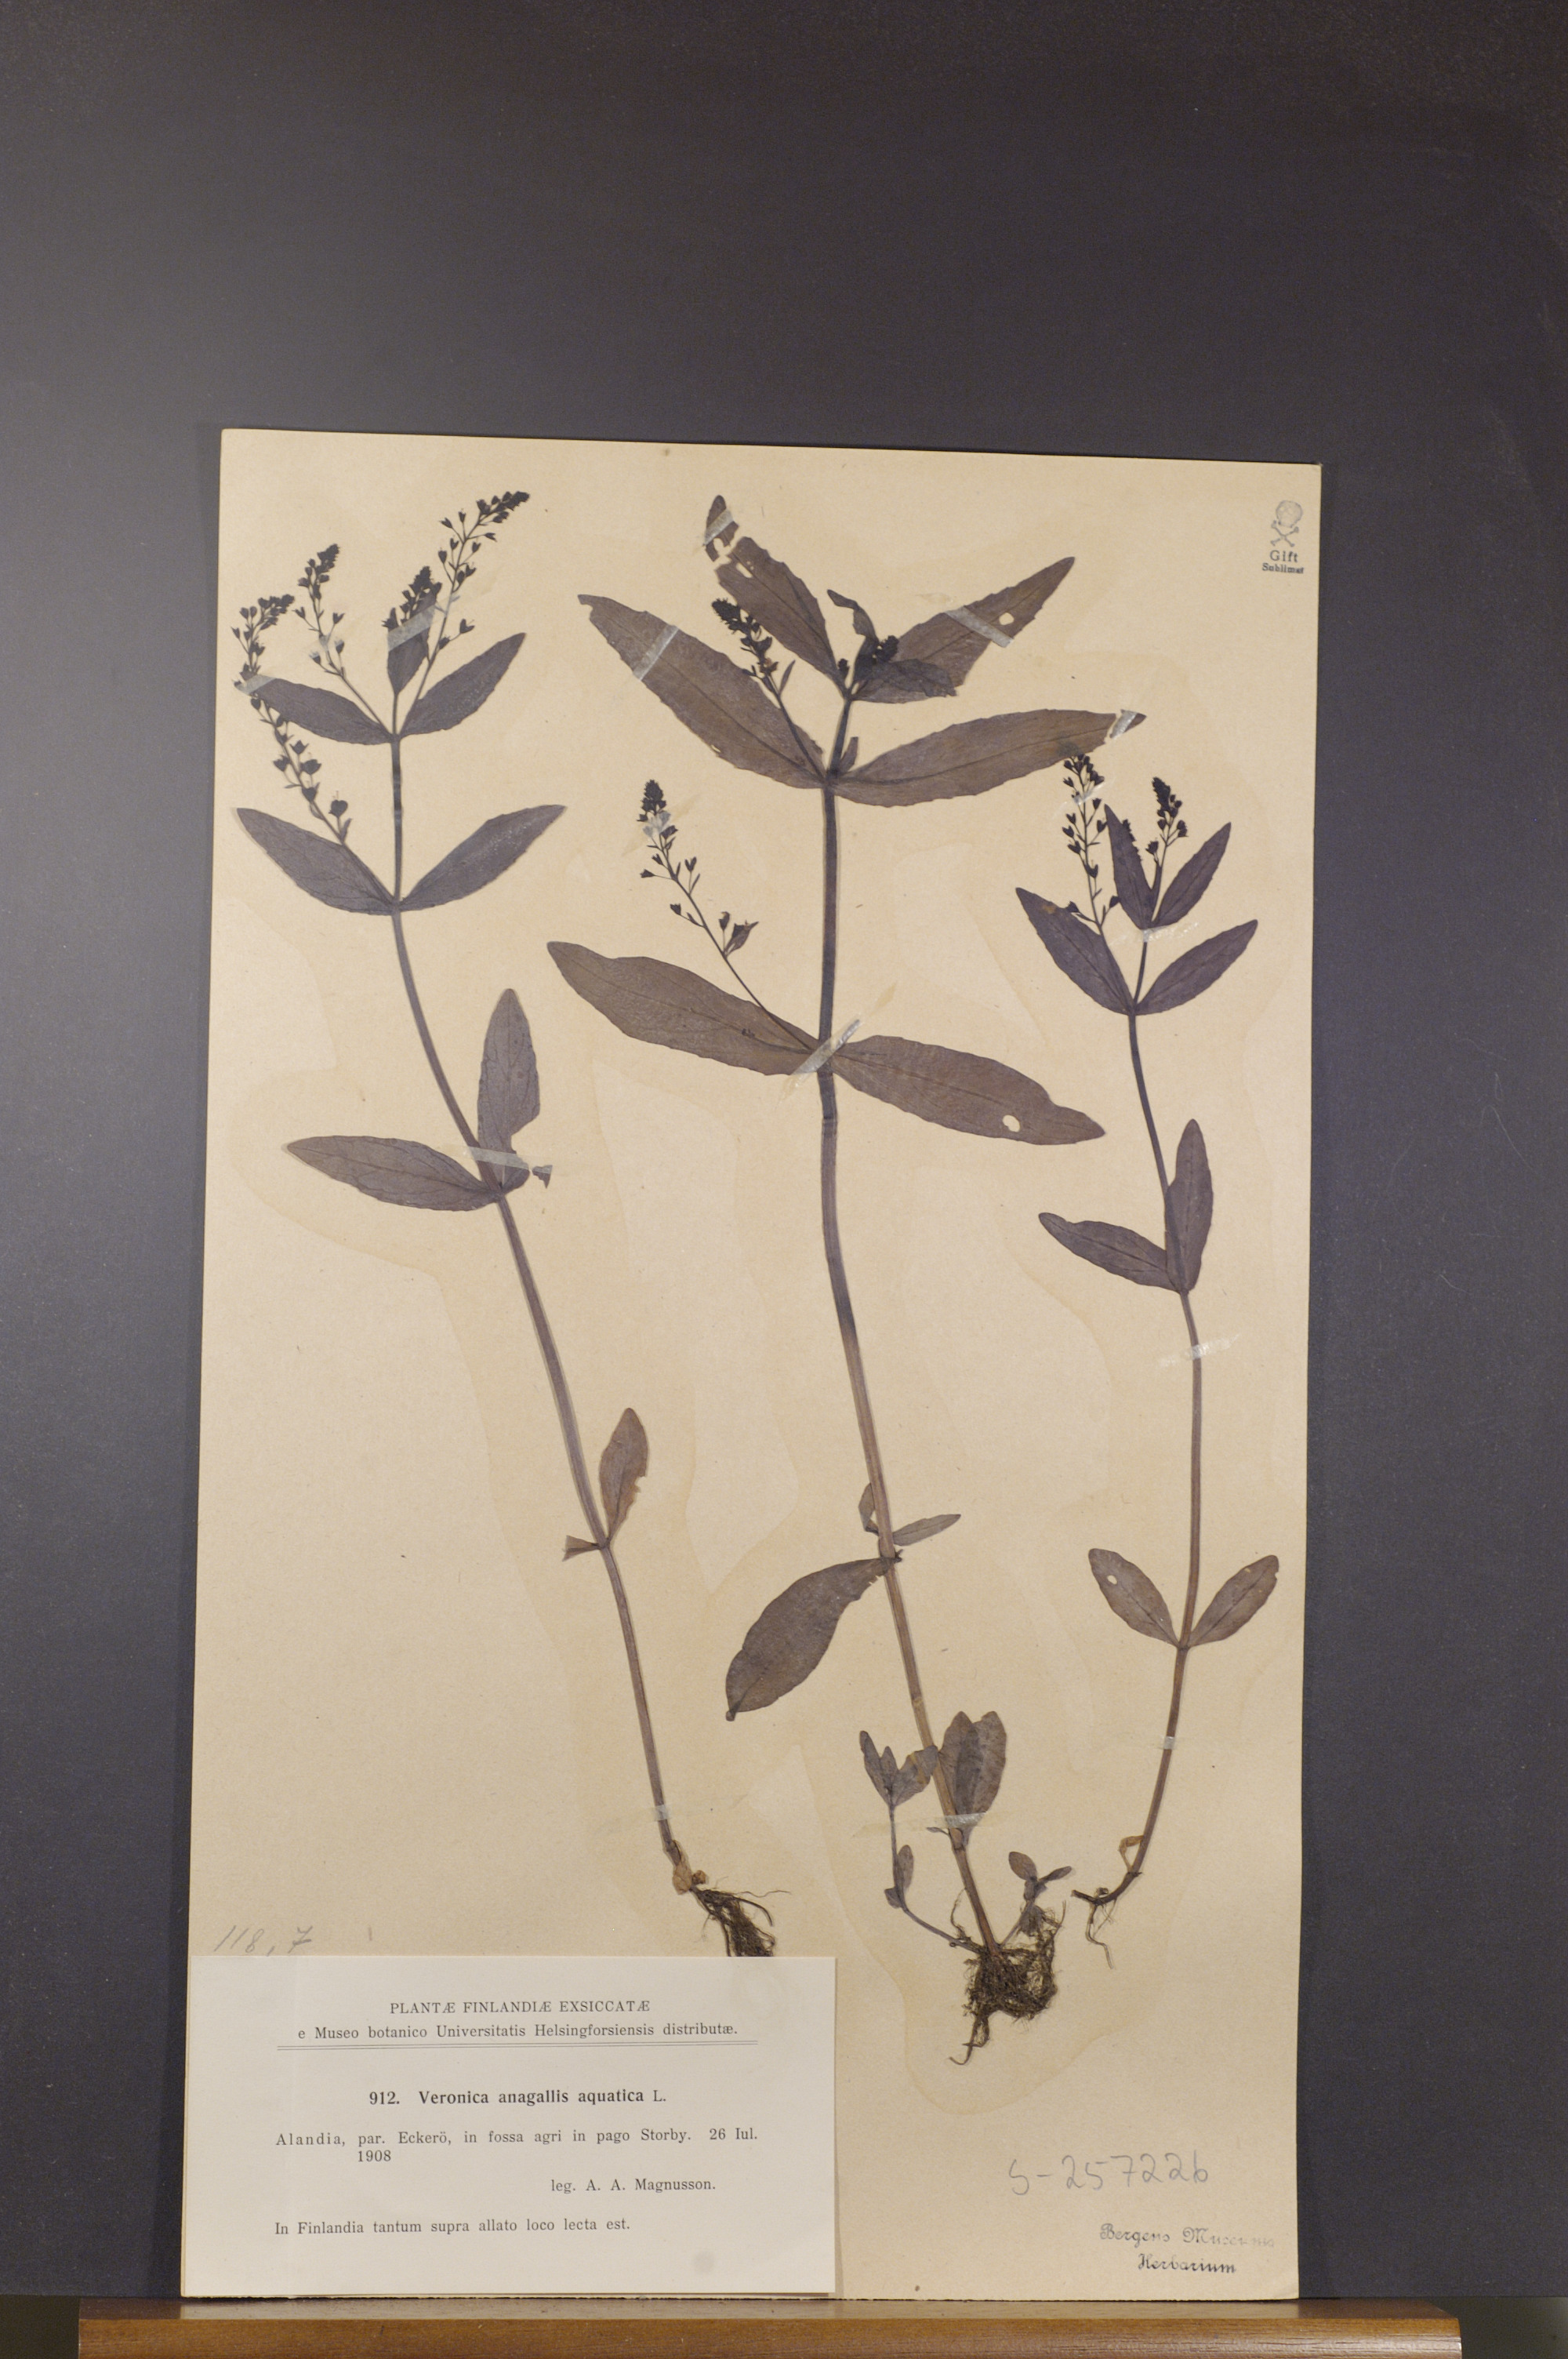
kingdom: Plantae
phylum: Tracheophyta
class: Magnoliopsida
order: Lamiales
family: Plantaginaceae
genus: Veronica
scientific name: Veronica anagallis-aquatica
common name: Water speedwell
